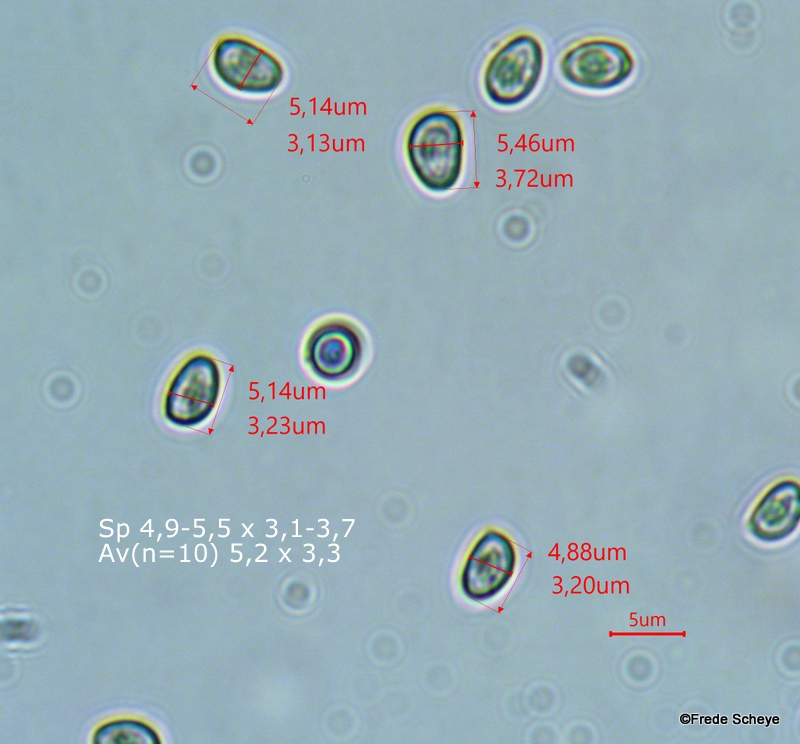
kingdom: Fungi
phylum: Basidiomycota
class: Agaricomycetes
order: Agaricales
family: Strophariaceae
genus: Pholiota
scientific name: Pholiota jahnii
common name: slimet skælhat
